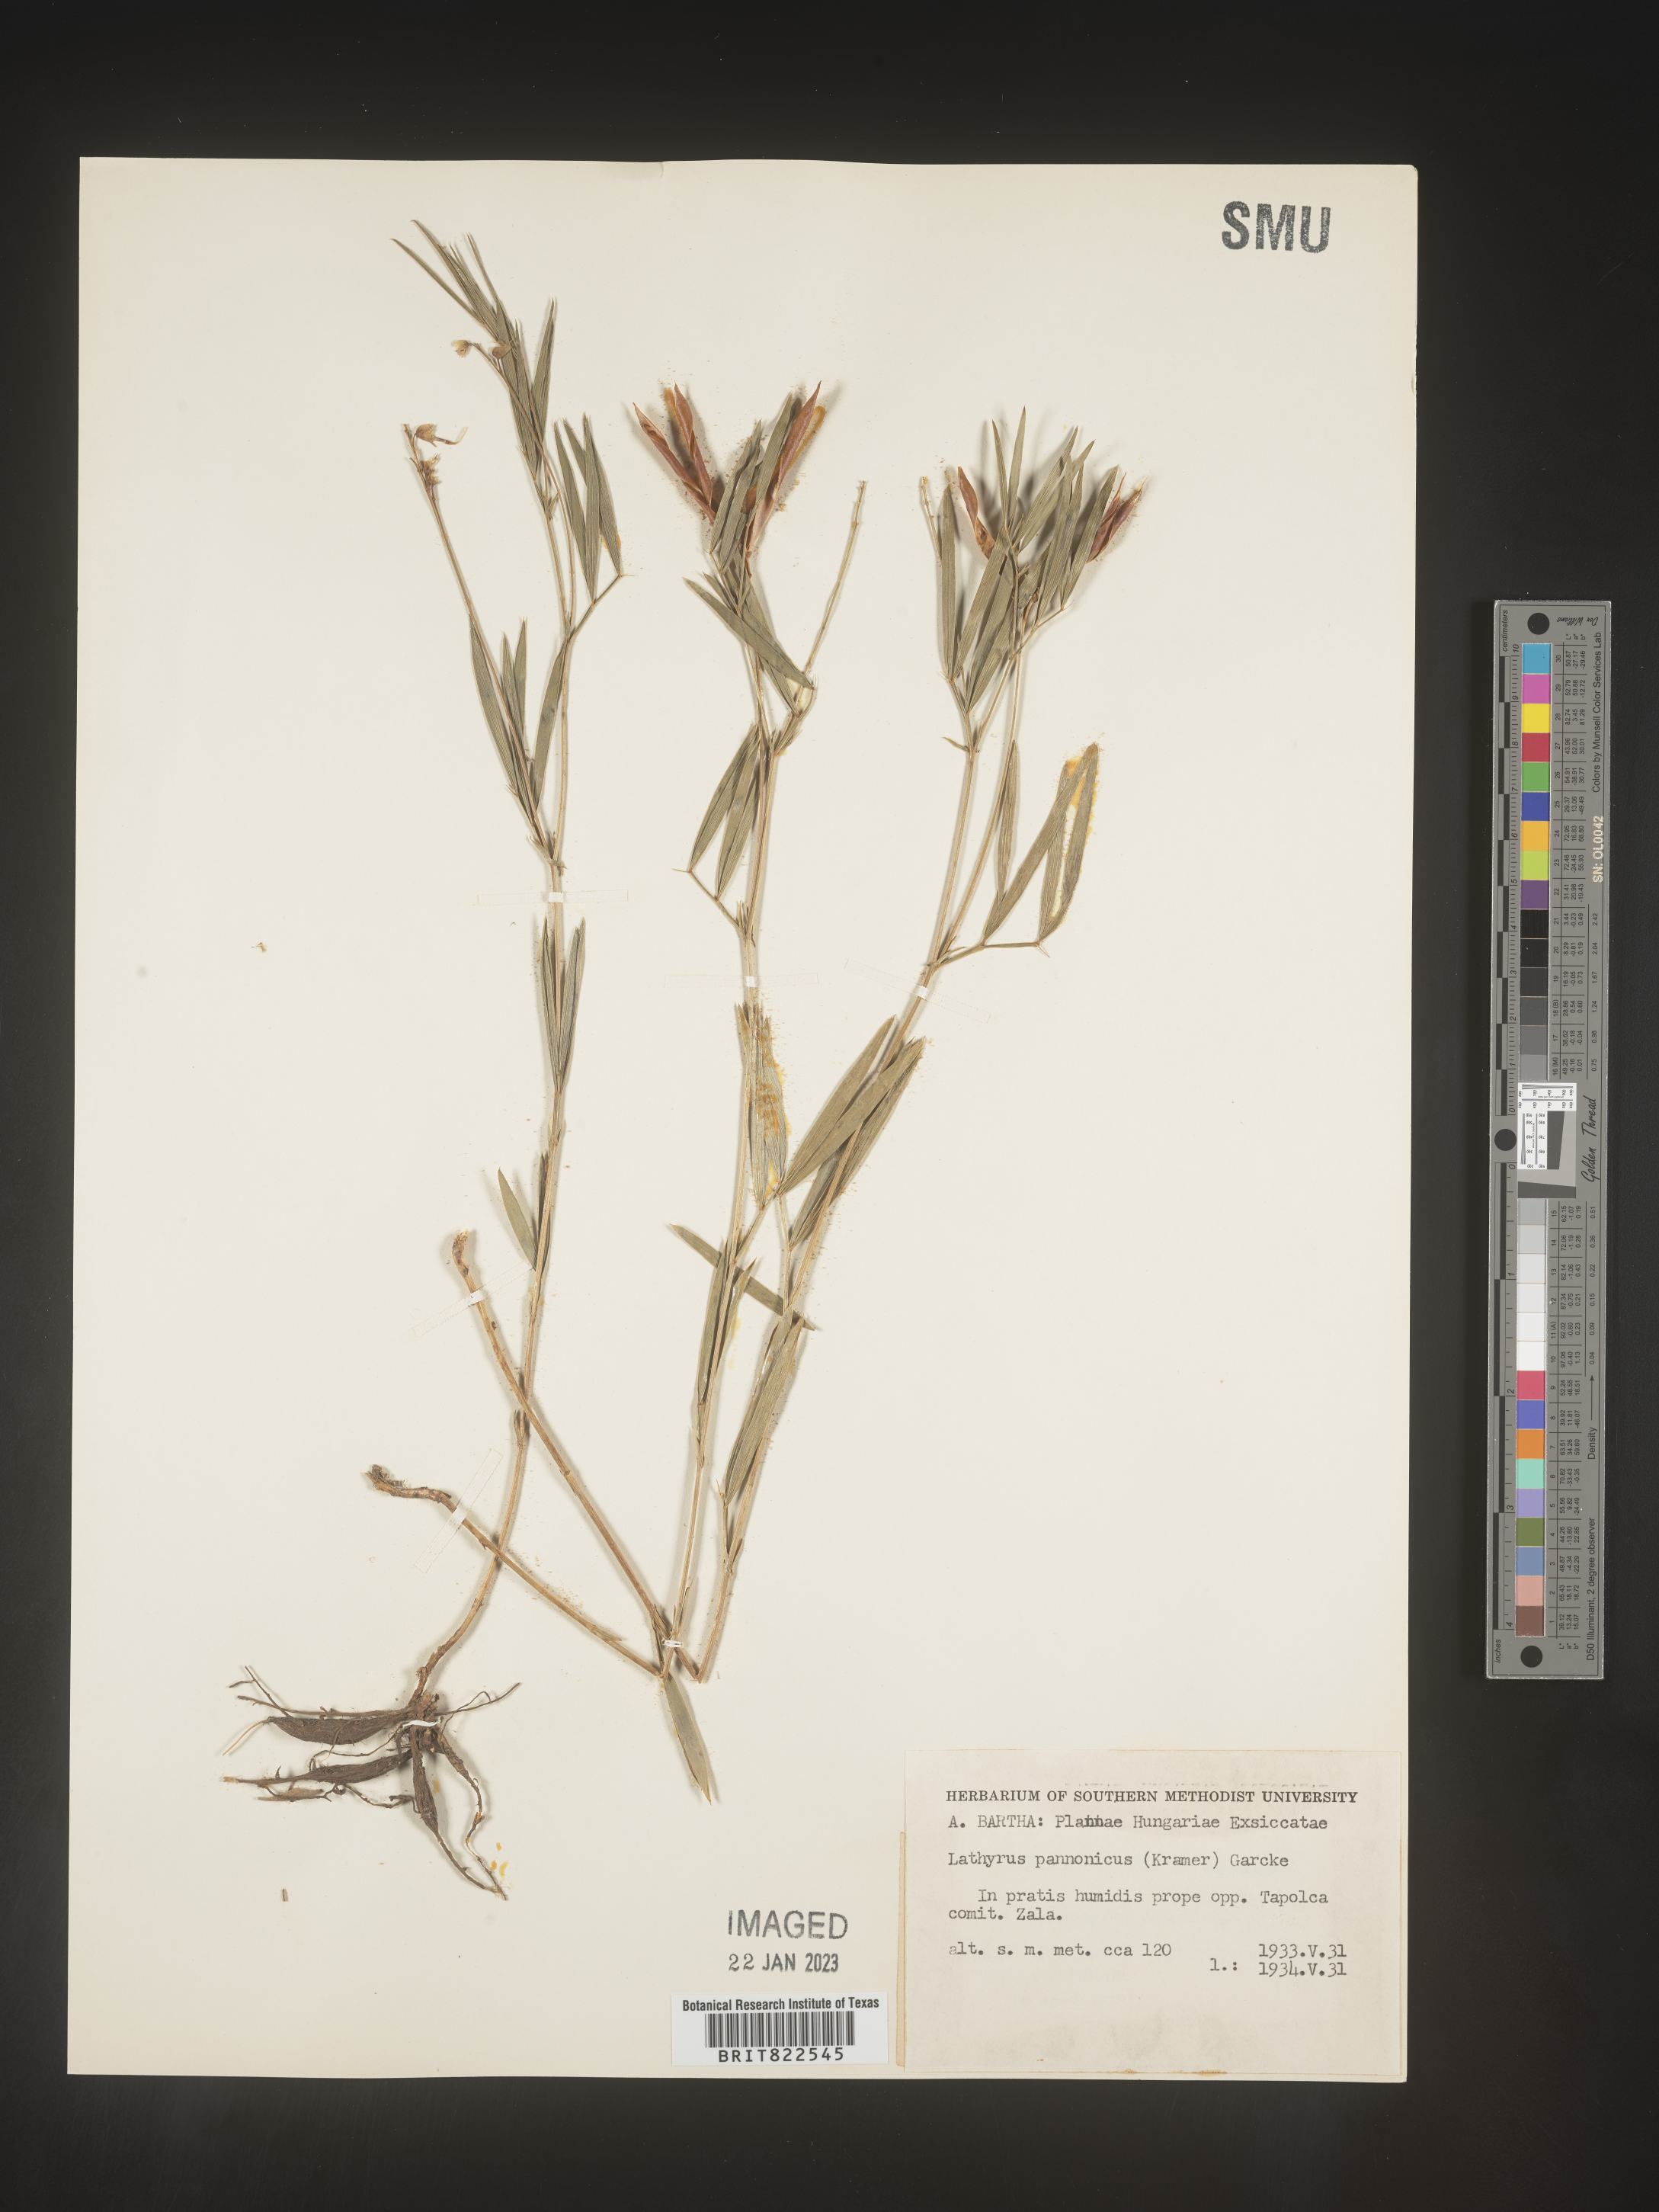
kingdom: Plantae
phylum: Tracheophyta
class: Magnoliopsida
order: Fabales
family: Fabaceae
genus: Lathyrus
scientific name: Lathyrus
